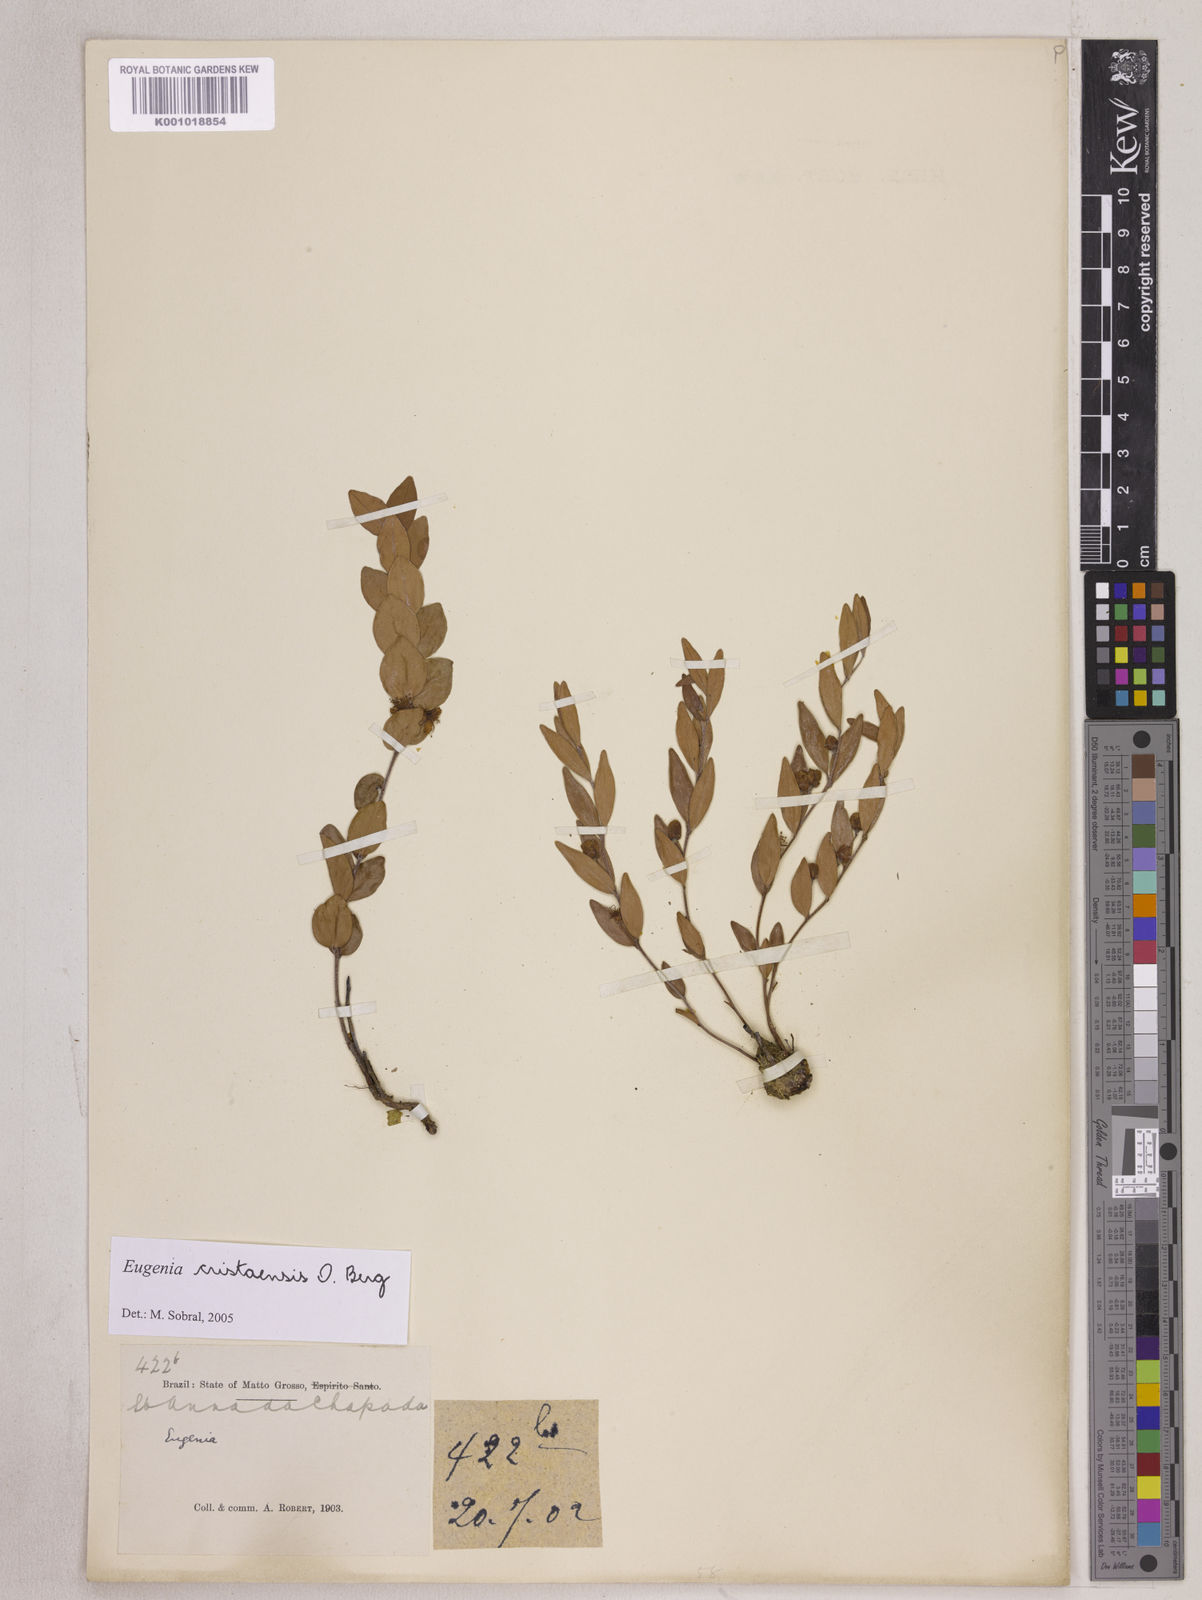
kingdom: Plantae
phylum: Tracheophyta
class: Magnoliopsida
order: Myrtales
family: Myrtaceae
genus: Eugenia
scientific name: Eugenia cristaensis
